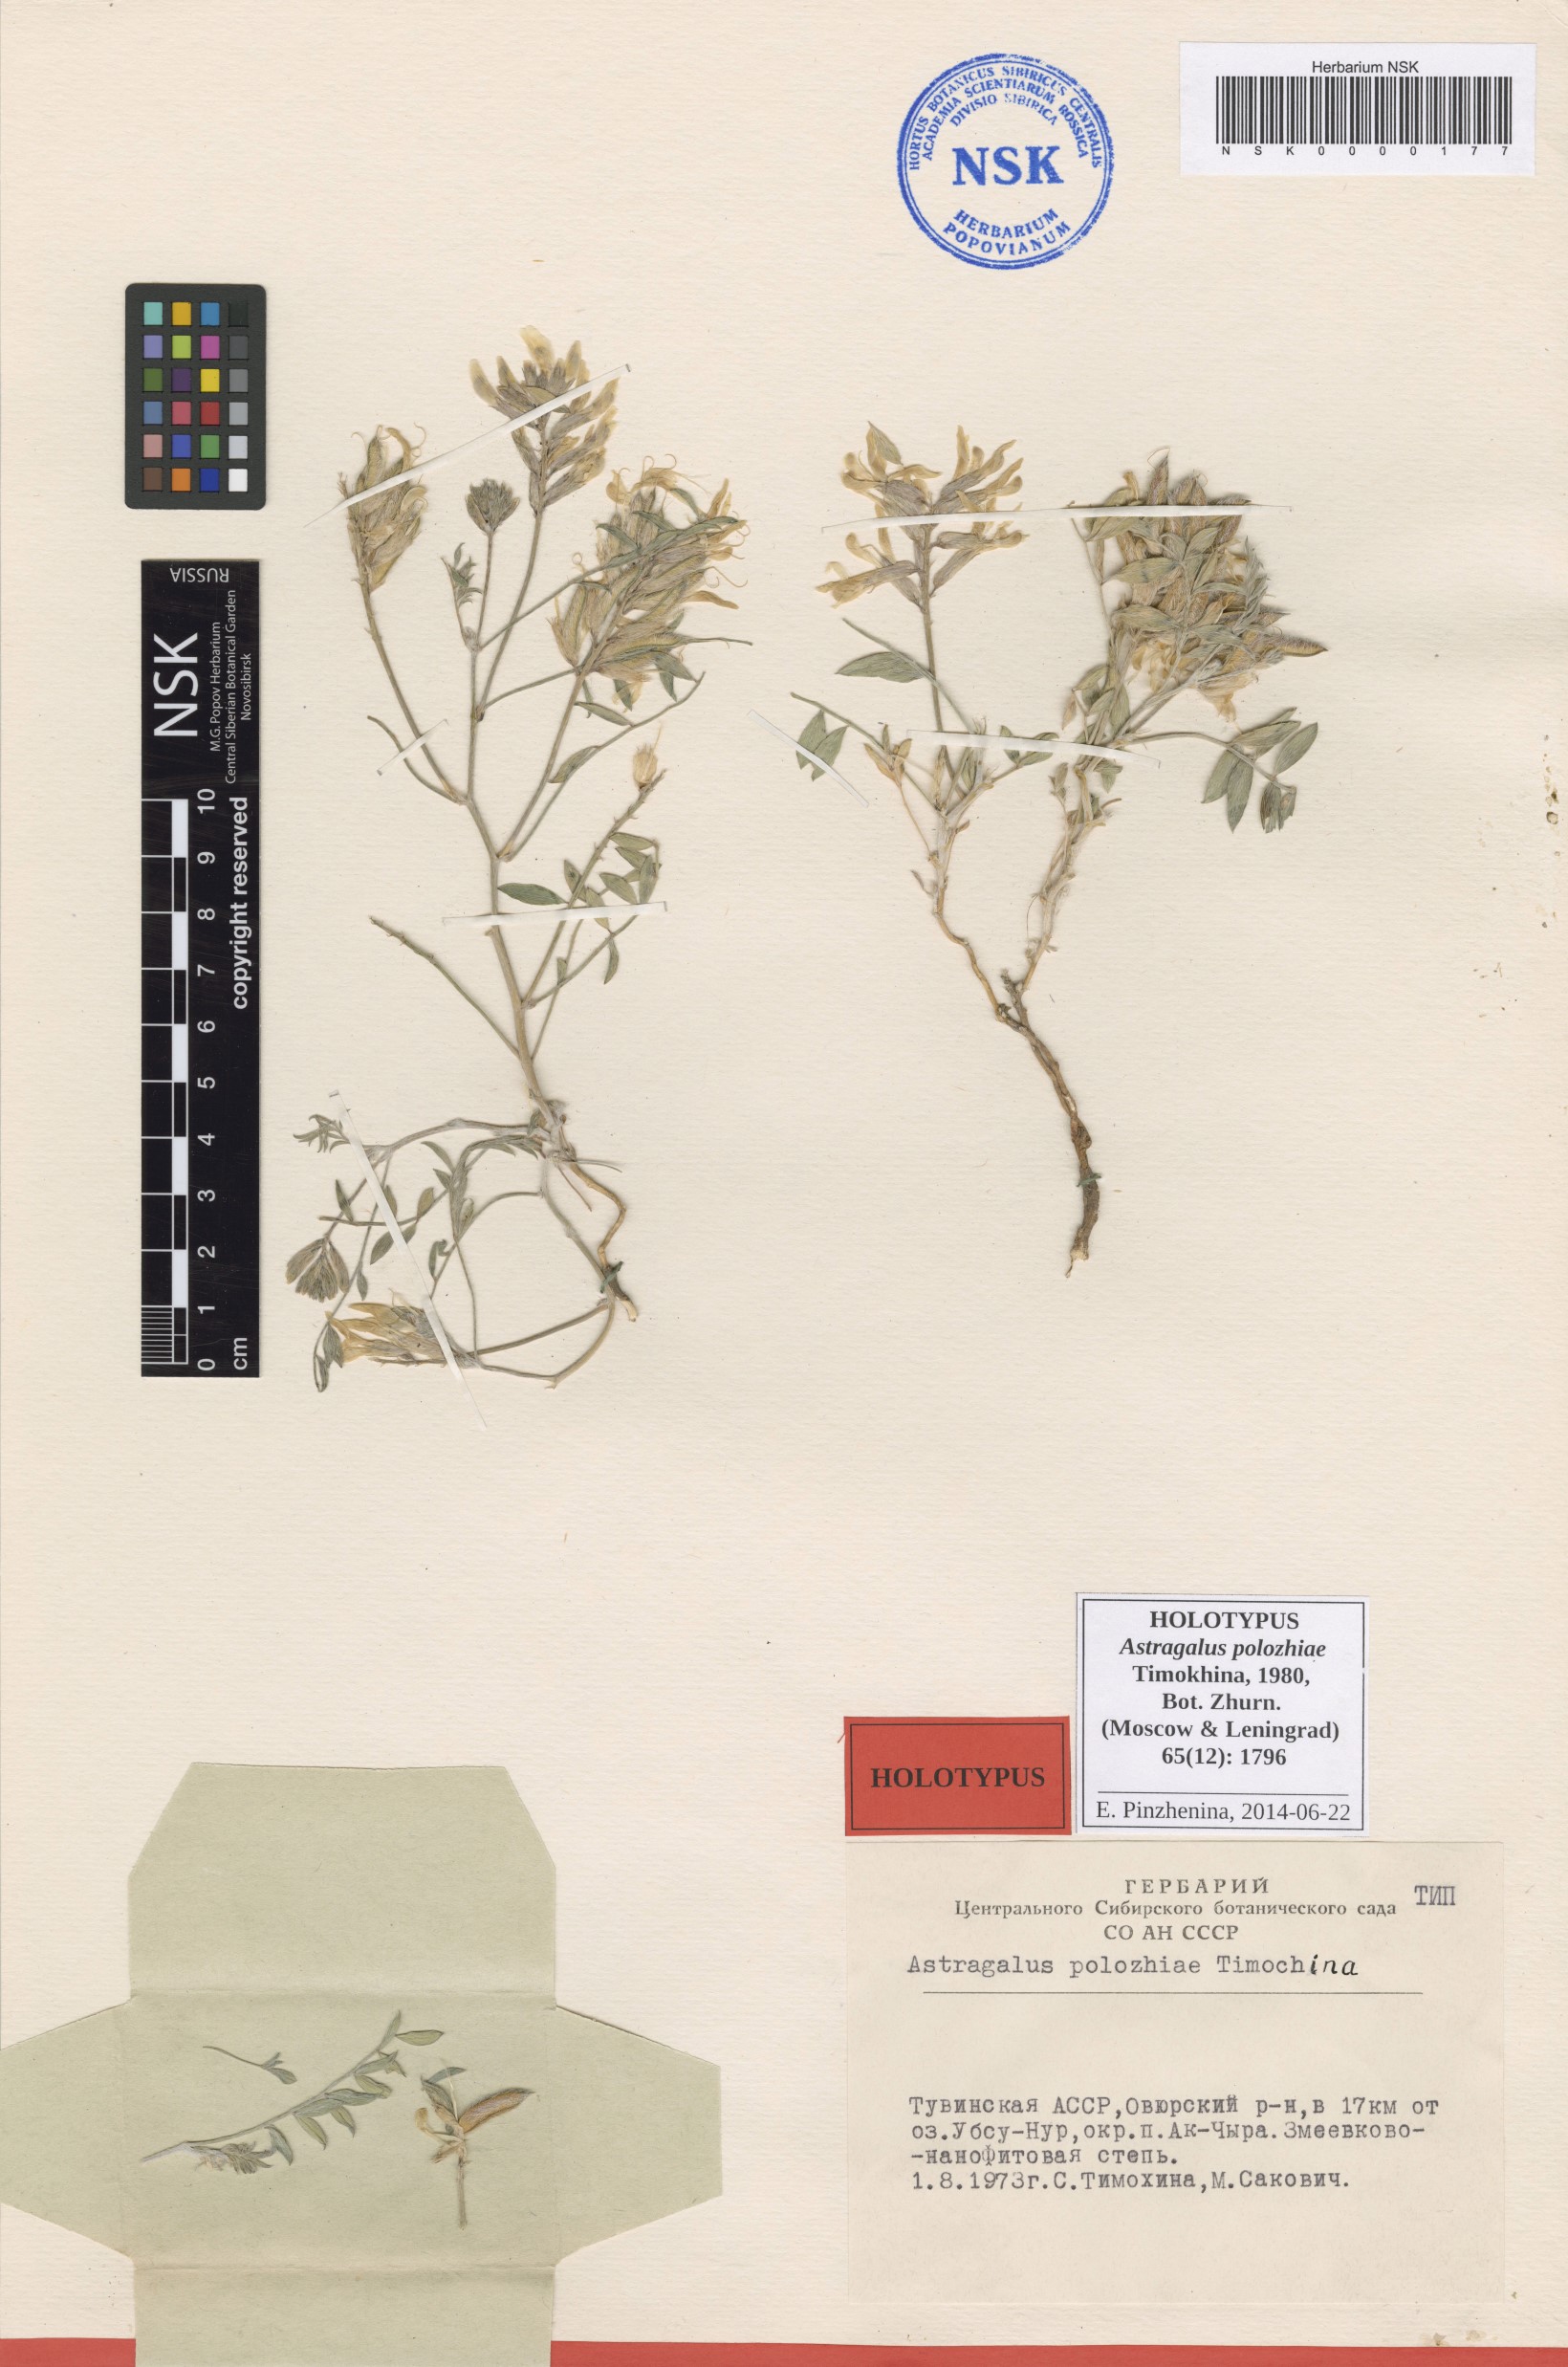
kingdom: Plantae
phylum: Tracheophyta
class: Magnoliopsida
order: Fabales
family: Fabaceae
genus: Astragalus
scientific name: Astragalus polozhiae
